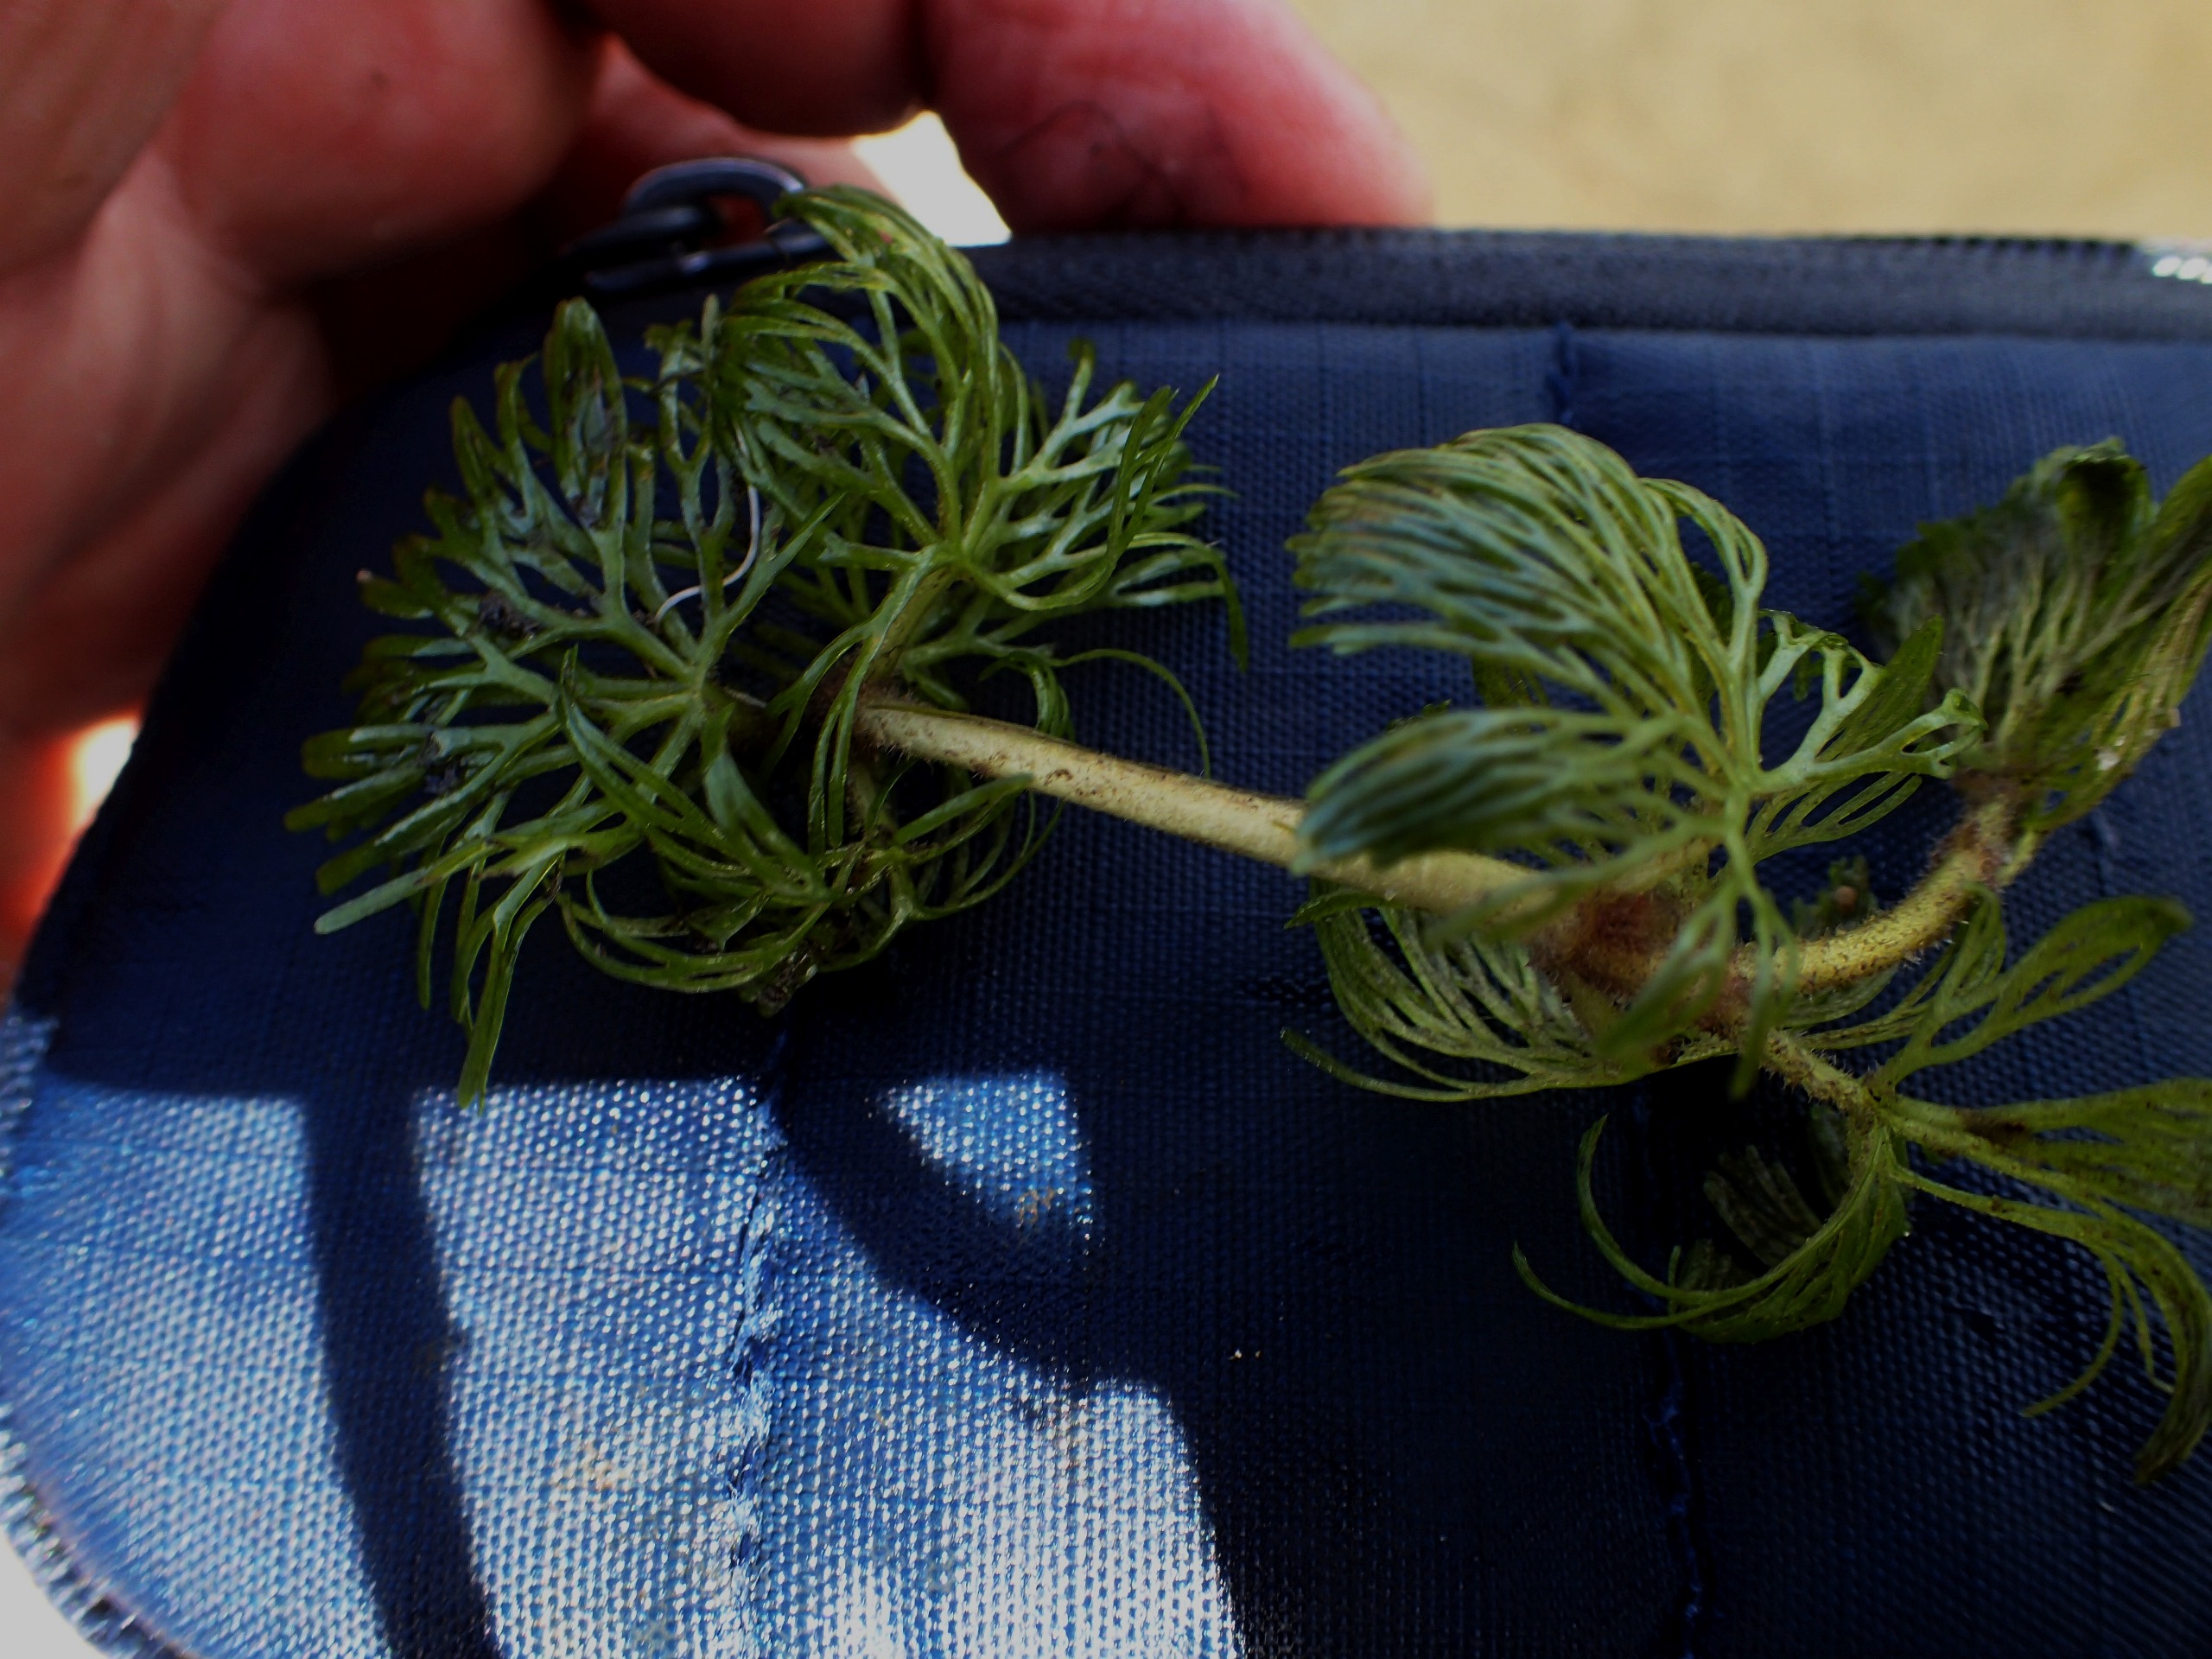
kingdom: Plantae
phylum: Tracheophyta
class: Magnoliopsida
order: Nymphaeales
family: Cabombaceae
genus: Cabomba
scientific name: Cabomba caroliniana
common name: Grøn cabomba
